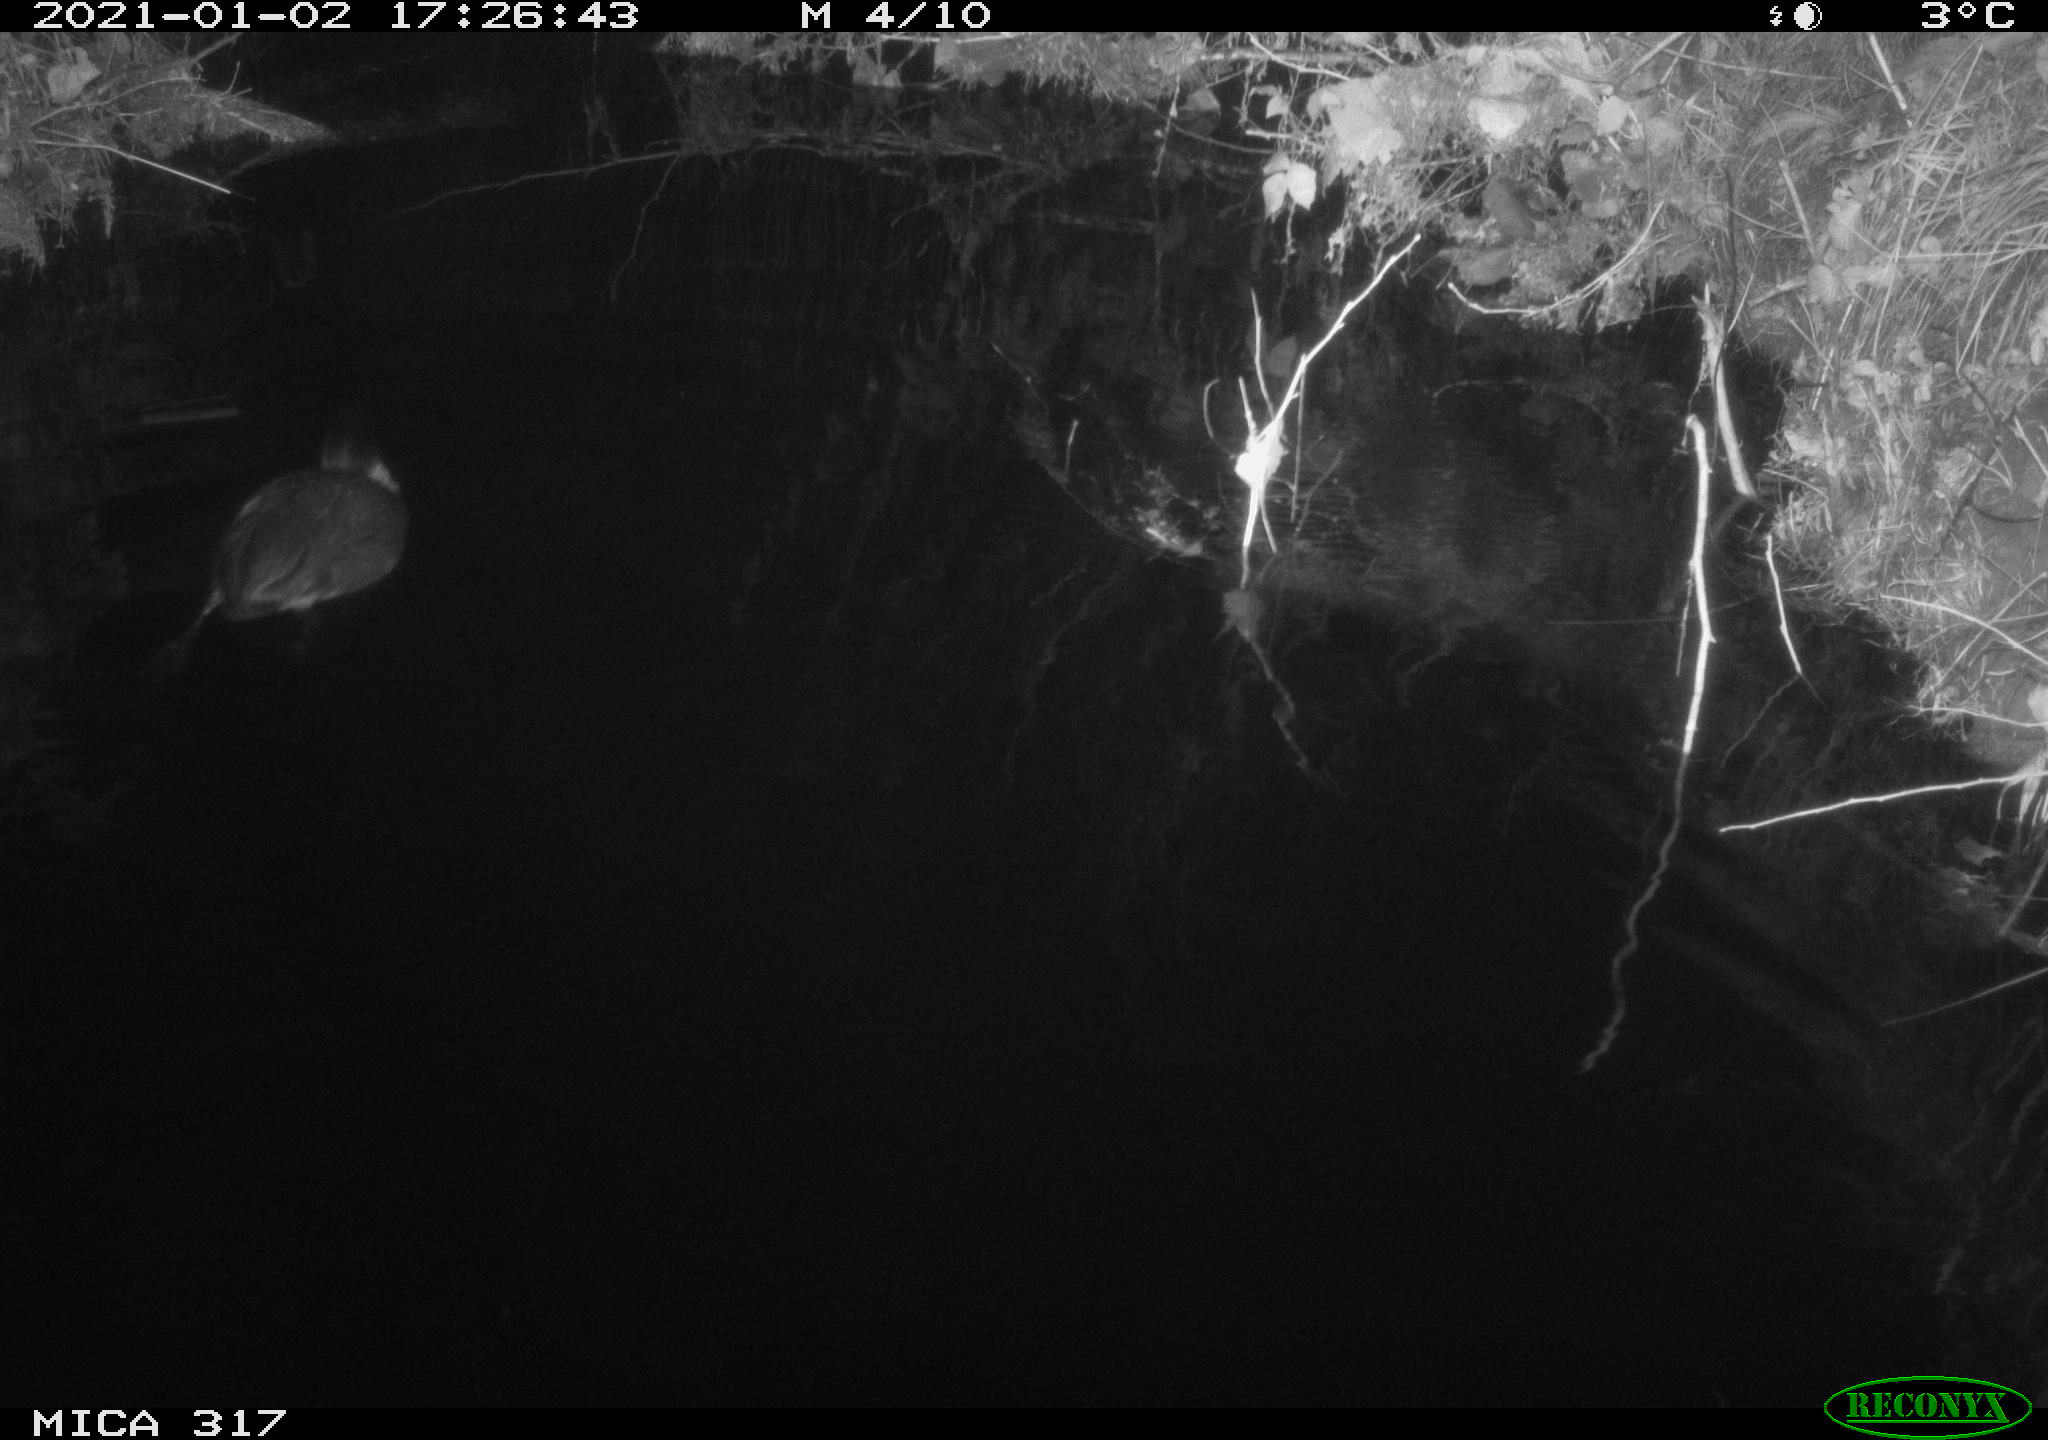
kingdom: Animalia
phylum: Chordata
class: Aves
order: Gruiformes
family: Rallidae
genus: Fulica
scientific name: Fulica atra
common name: Eurasian coot
